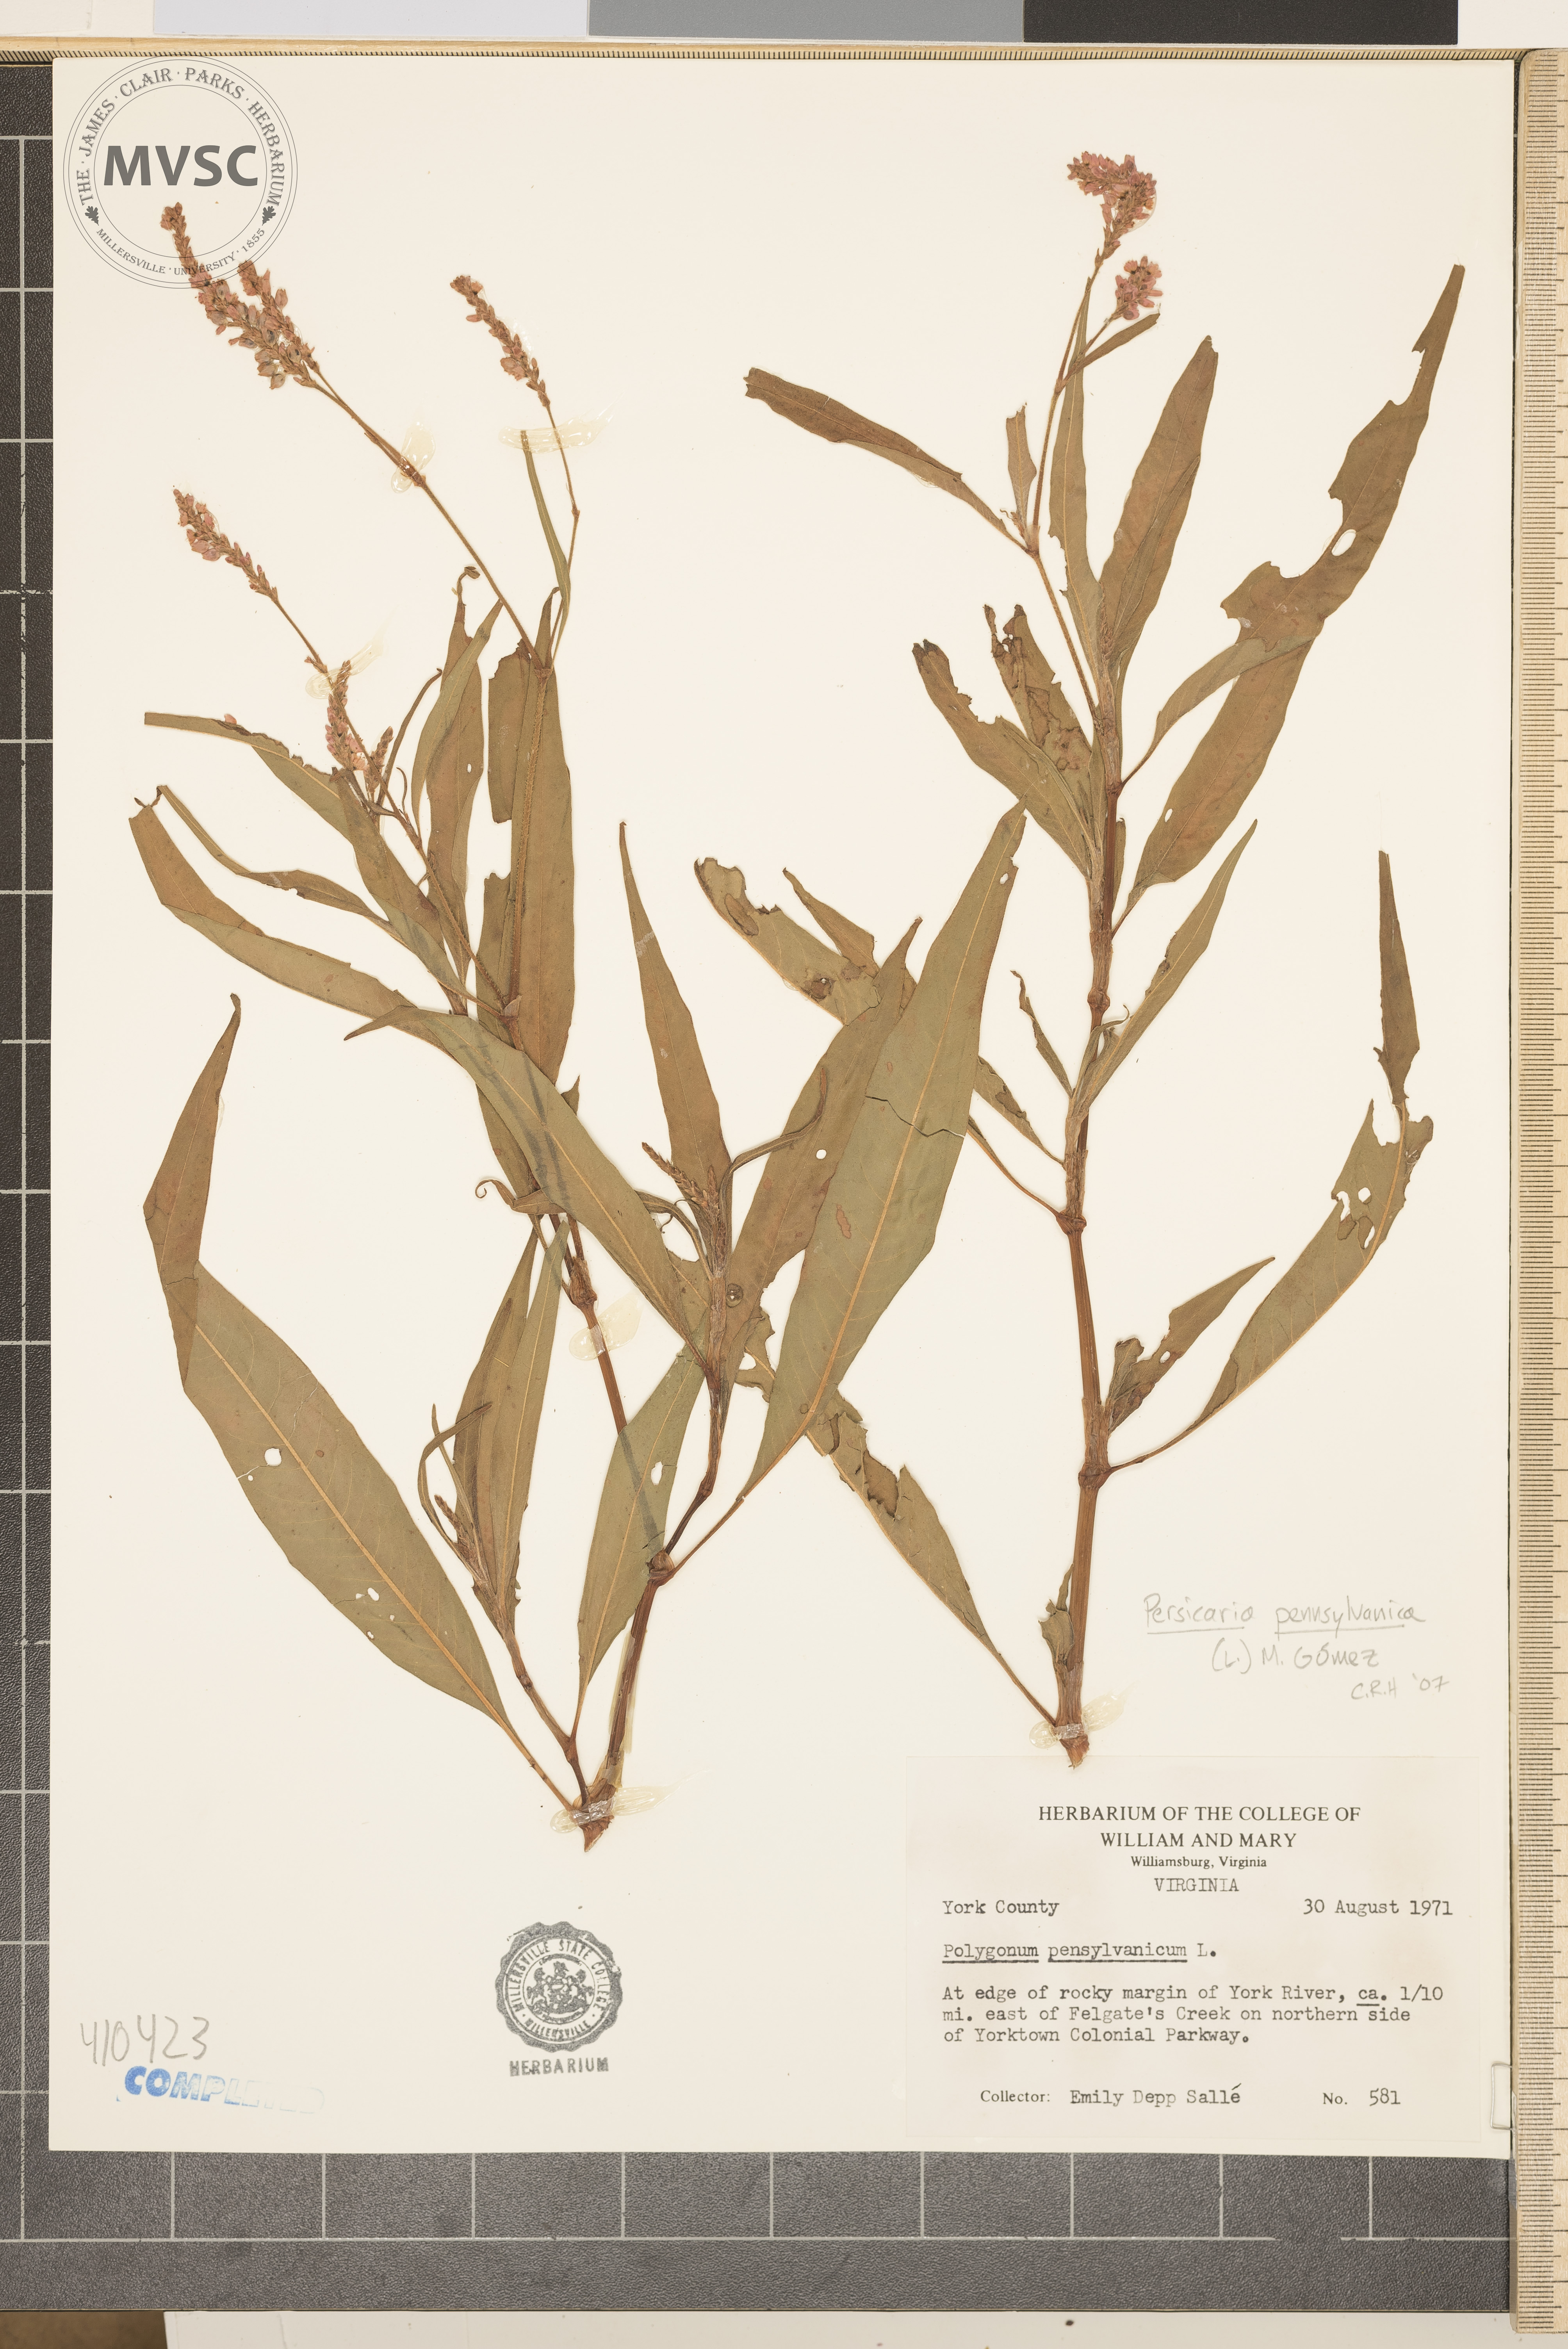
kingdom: Plantae
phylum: Tracheophyta
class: Magnoliopsida
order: Caryophyllales
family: Polygonaceae
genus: Persicaria
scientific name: Persicaria pensylvanica
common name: Pinkweed
